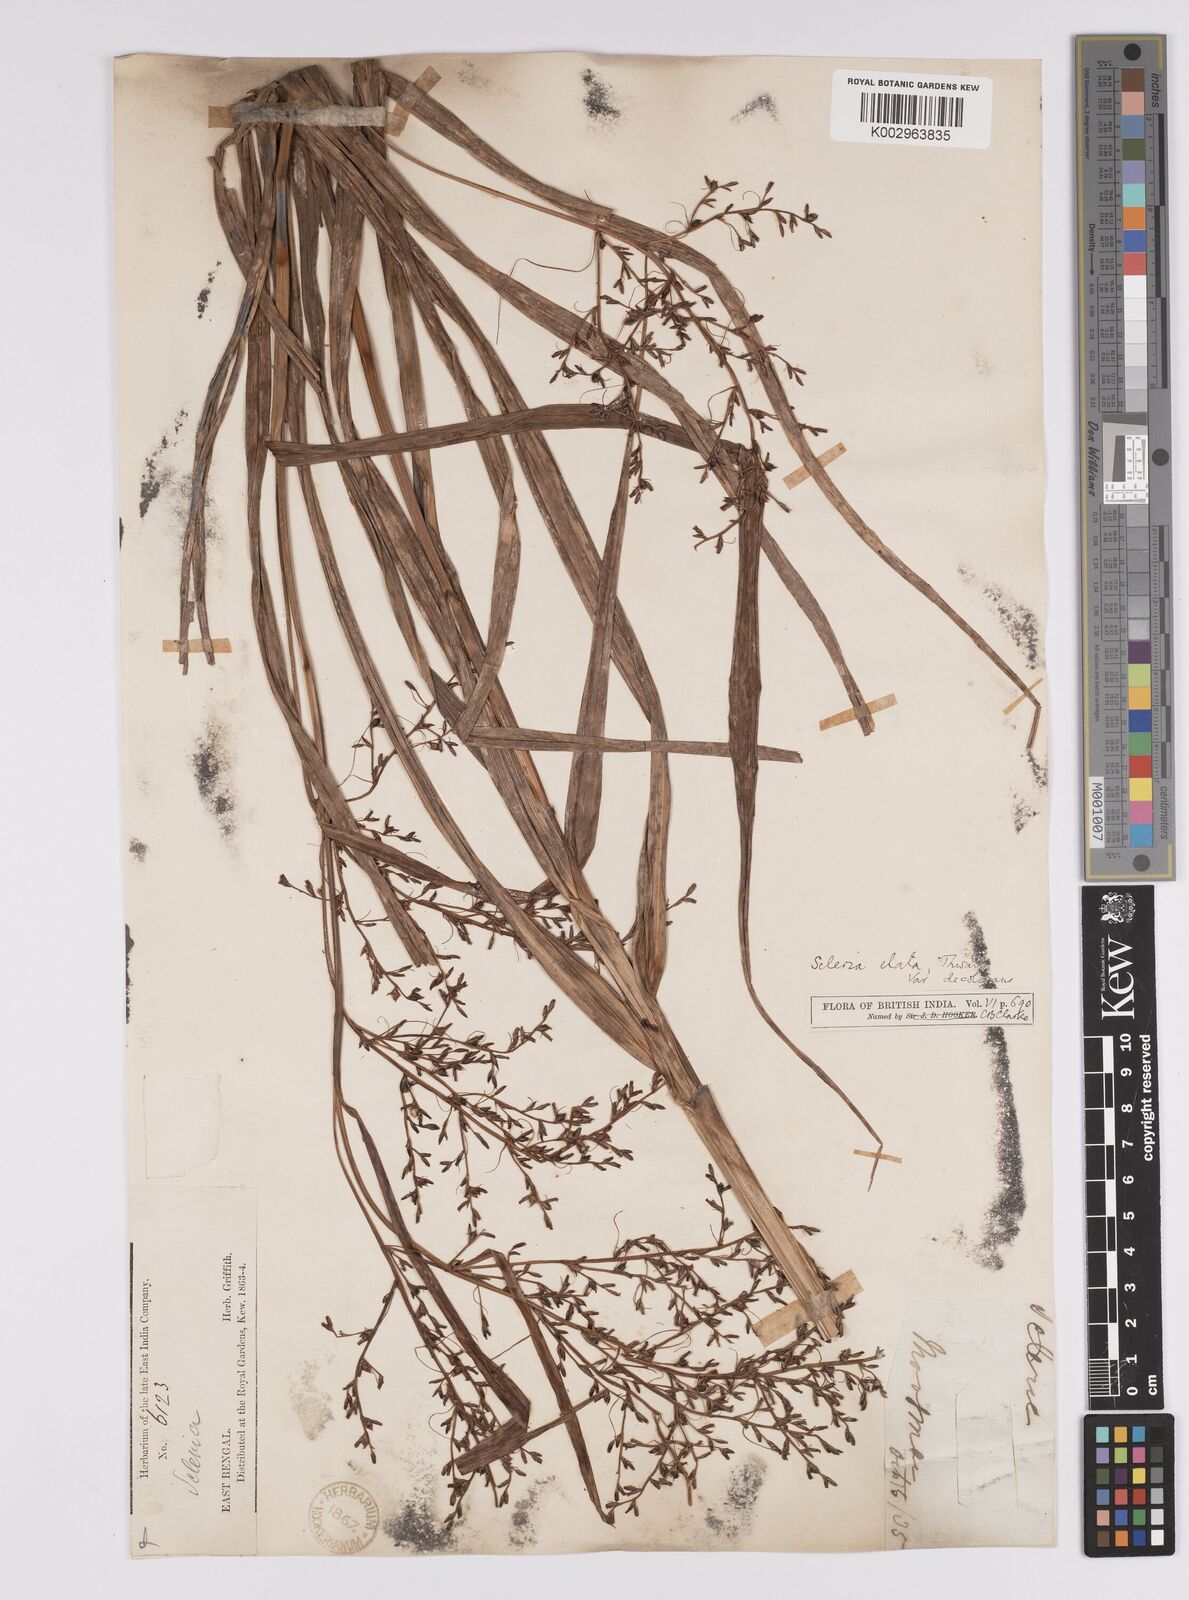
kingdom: Plantae
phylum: Tracheophyta
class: Liliopsida
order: Poales
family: Cyperaceae
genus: Scleria
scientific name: Scleria terrestris
